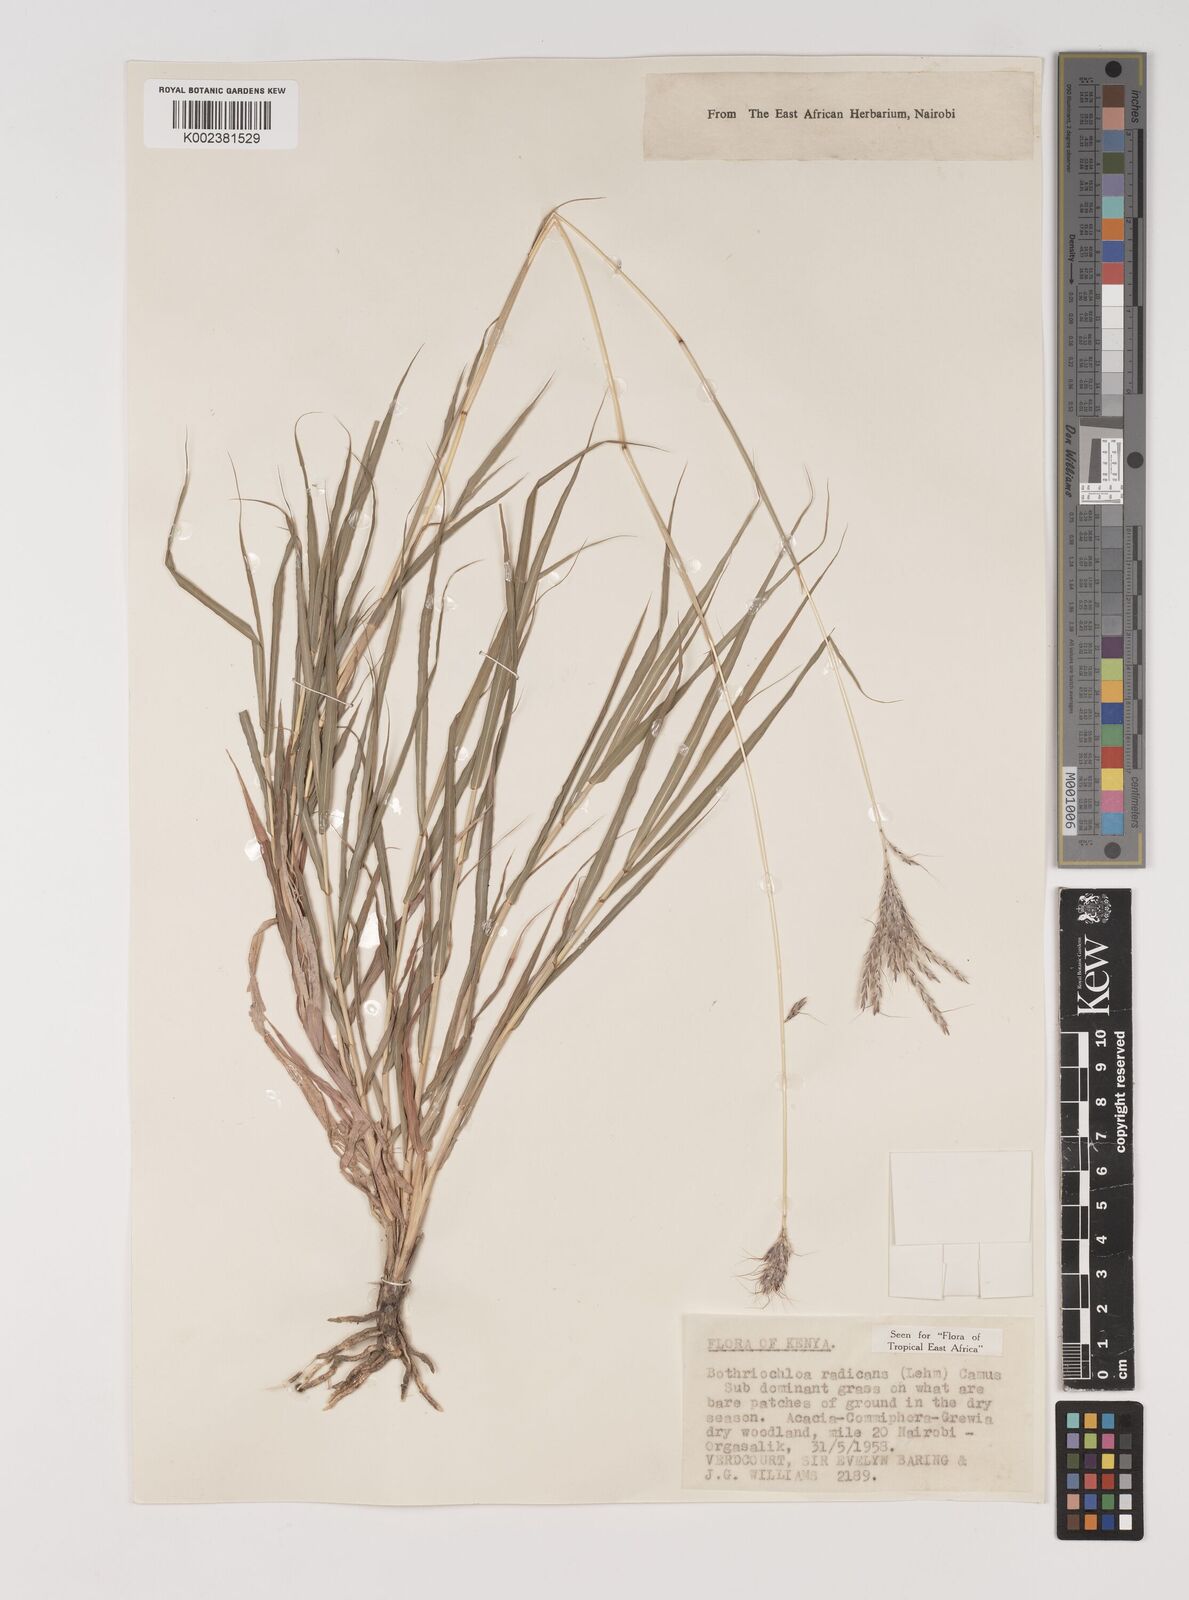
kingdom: Plantae
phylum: Tracheophyta
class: Liliopsida
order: Poales
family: Poaceae
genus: Bothriochloa
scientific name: Bothriochloa radicans
